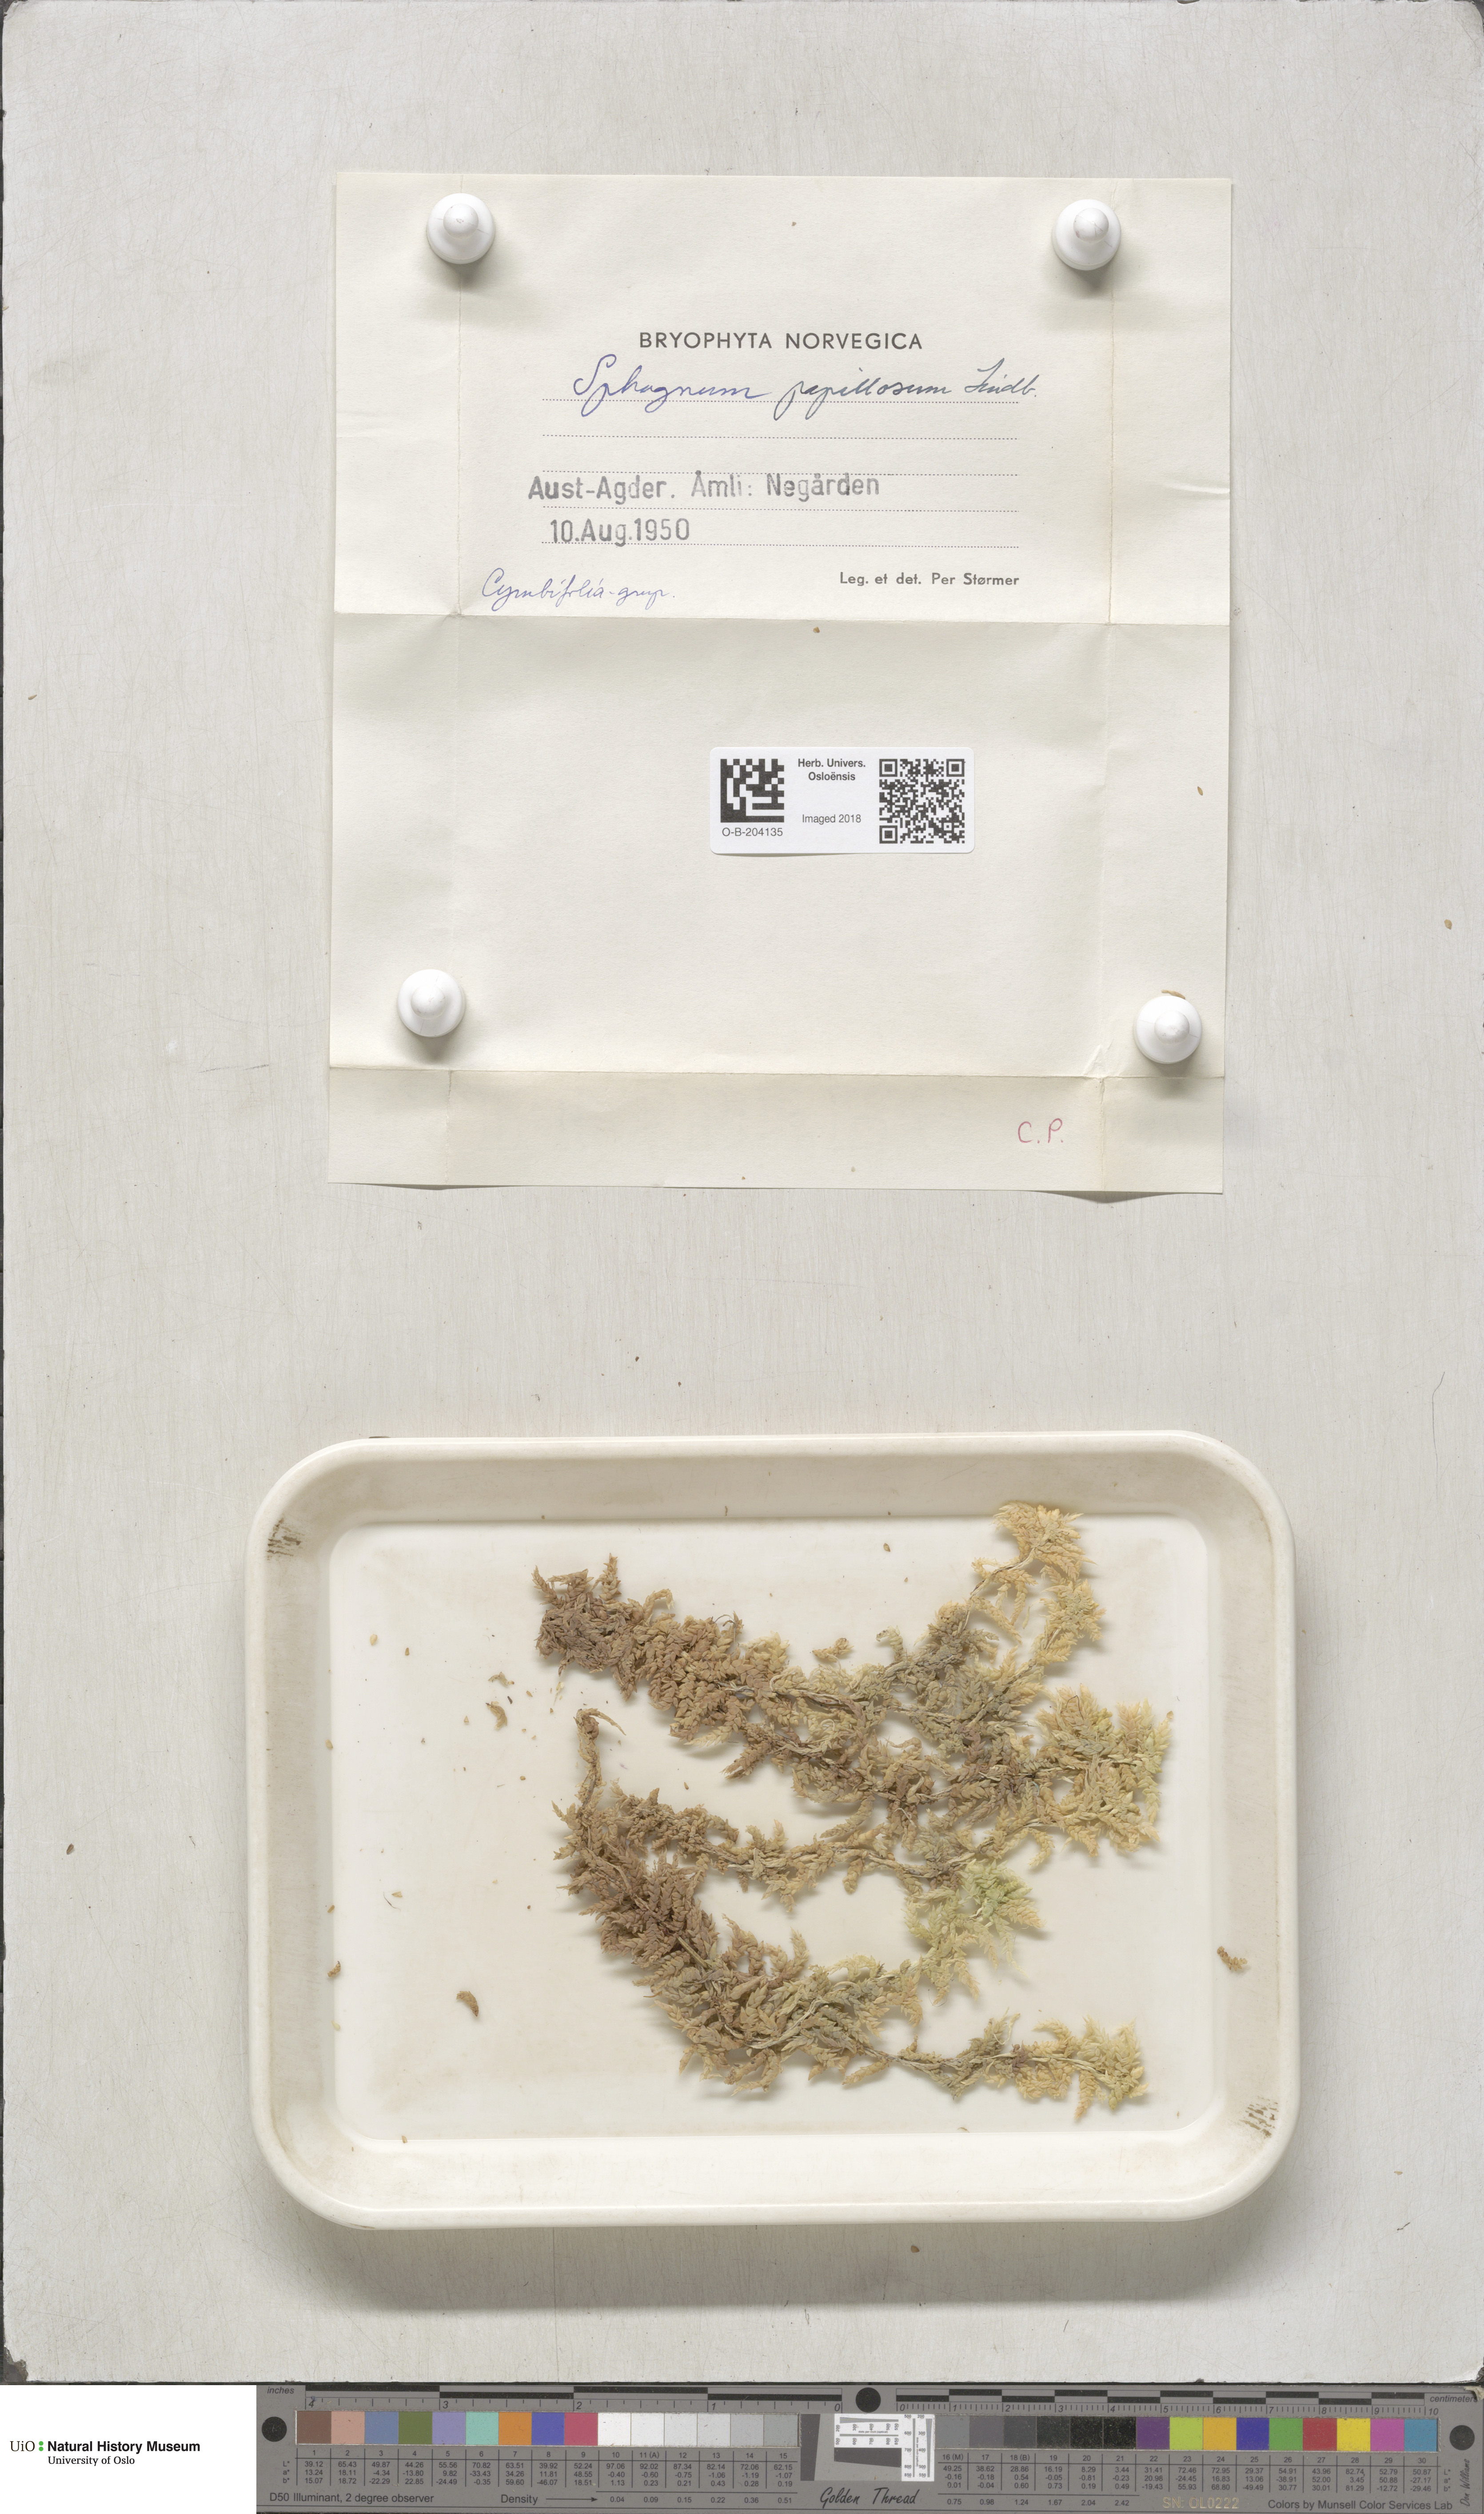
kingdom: Plantae
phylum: Bryophyta
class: Sphagnopsida
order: Sphagnales
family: Sphagnaceae
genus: Sphagnum
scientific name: Sphagnum papillosum
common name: Papillose peat moss
